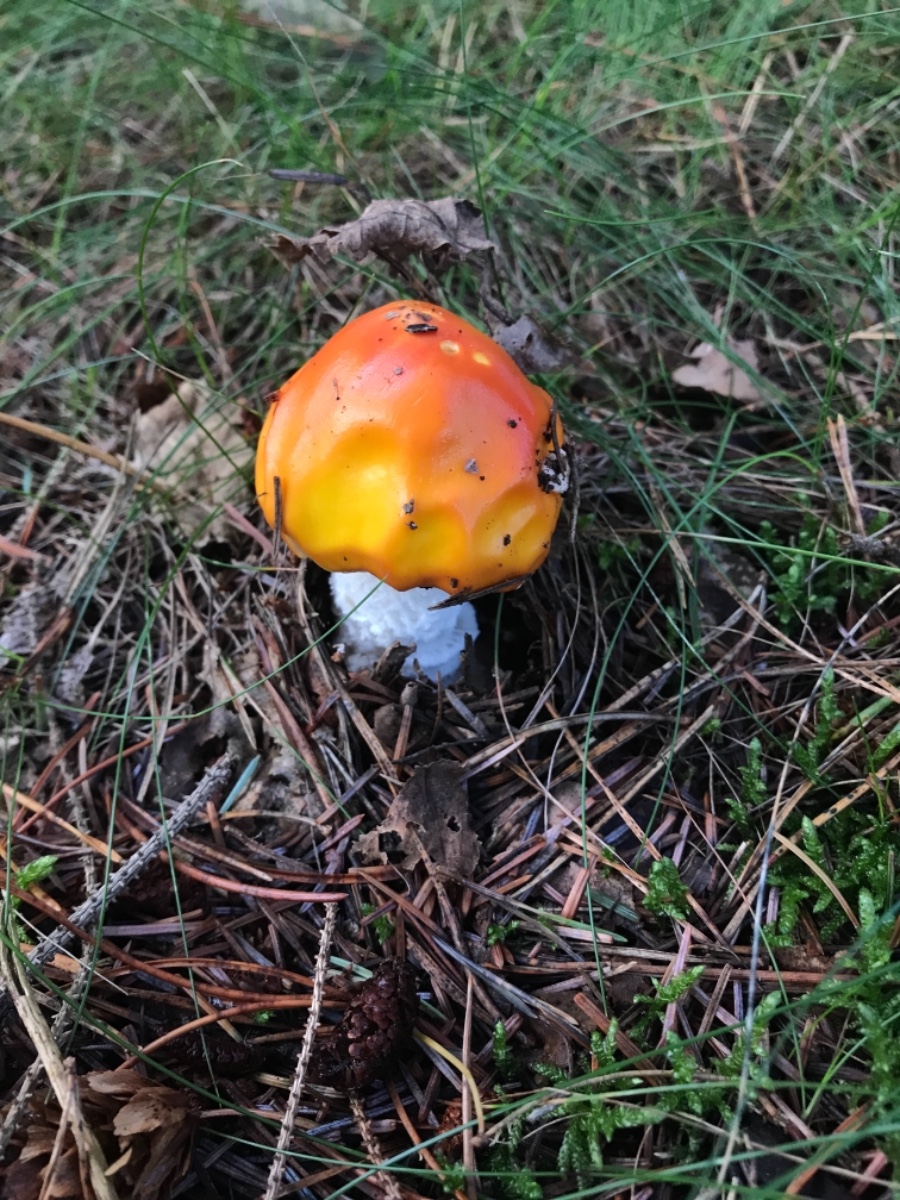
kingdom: Fungi
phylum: Basidiomycota
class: Agaricomycetes
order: Agaricales
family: Amanitaceae
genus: Amanita
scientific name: Amanita muscaria
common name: rød fluesvamp
